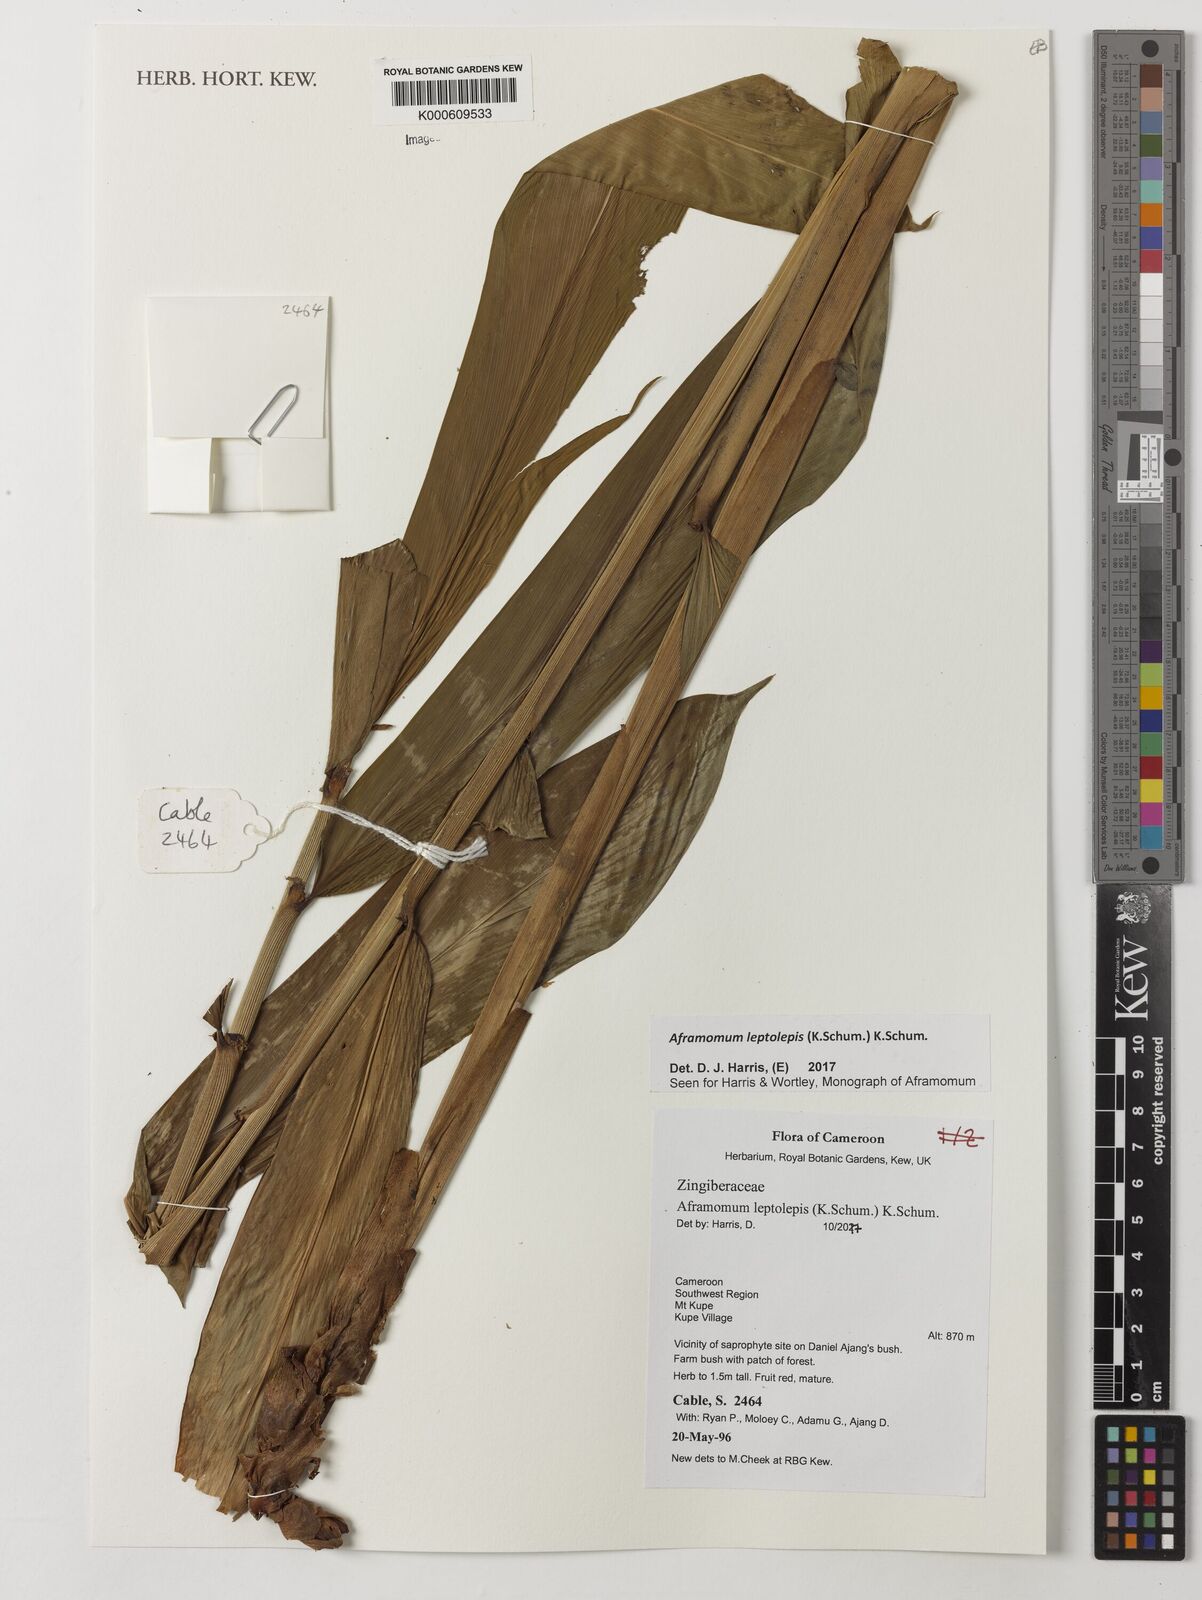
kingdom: Plantae
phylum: Tracheophyta
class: Liliopsida
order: Zingiberales
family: Zingiberaceae
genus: Aframomum
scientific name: Aframomum leptolepis
